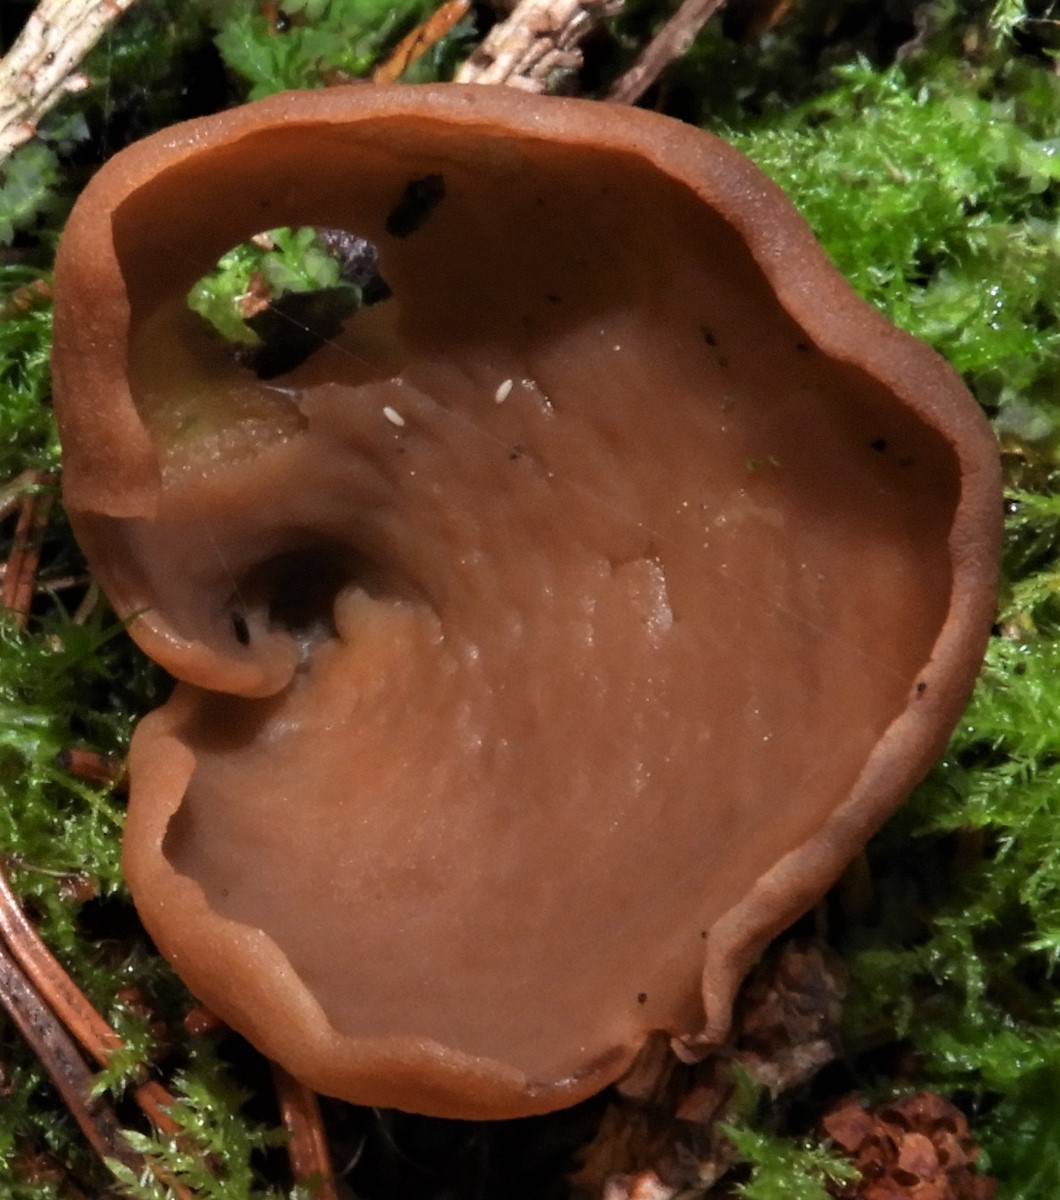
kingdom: Fungi
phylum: Ascomycota
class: Pezizomycetes
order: Pezizales
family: Otideaceae
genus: Otidea
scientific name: Otidea
